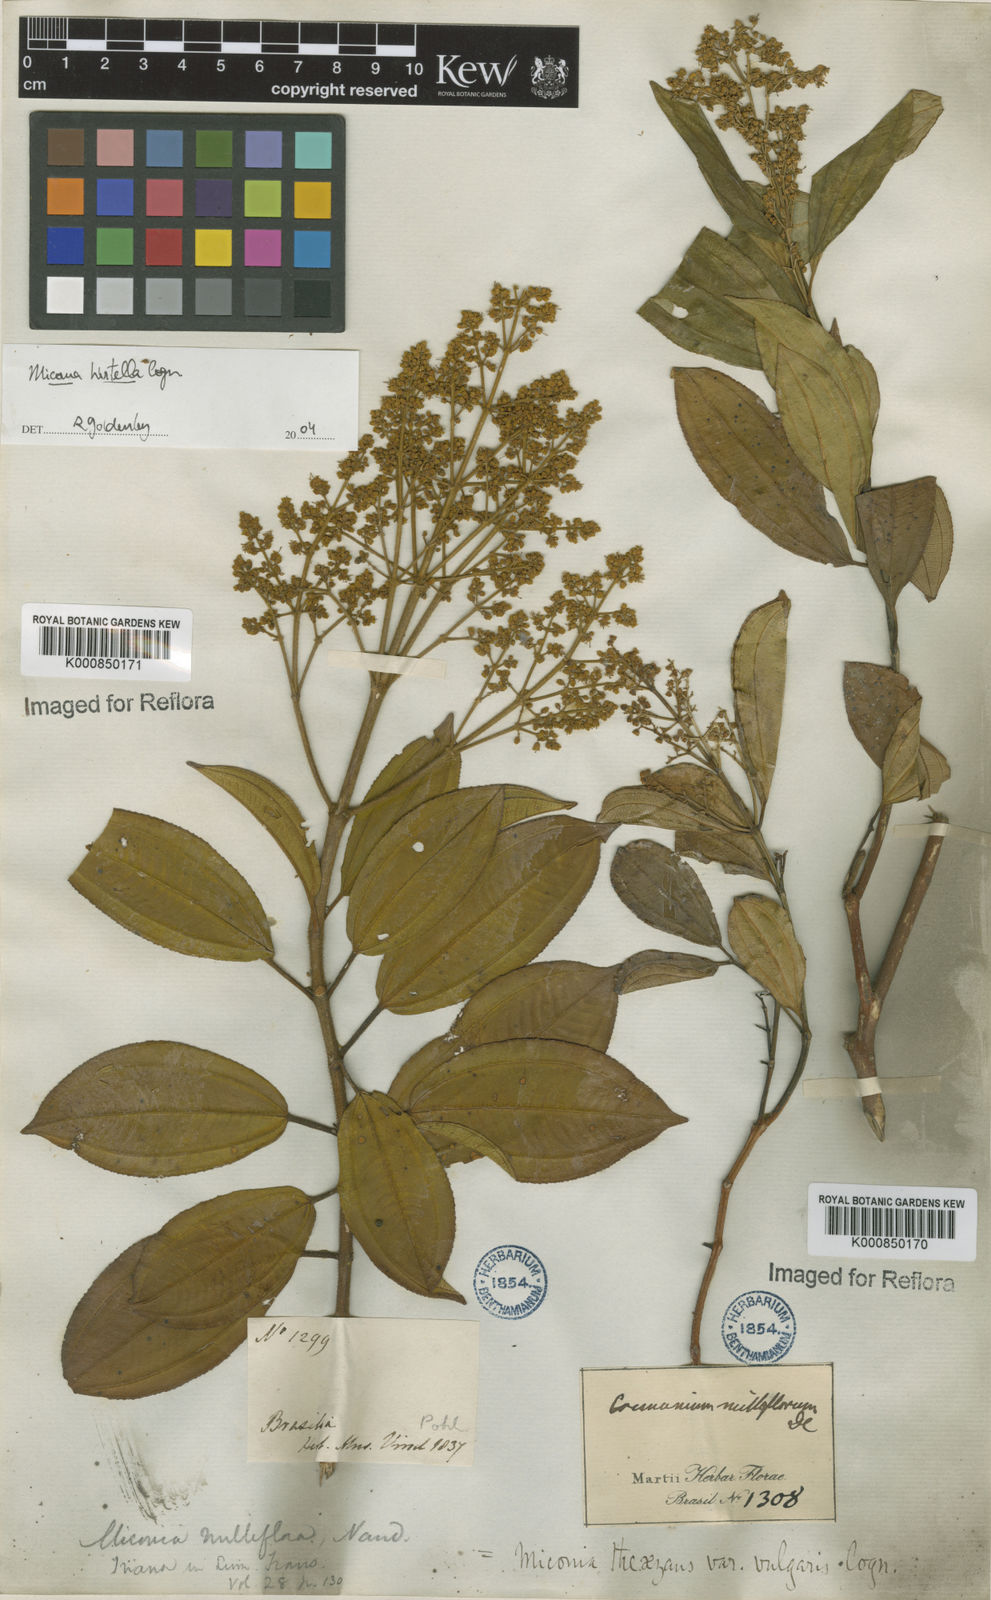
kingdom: Plantae
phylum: Tracheophyta
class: Magnoliopsida
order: Myrtales
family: Melastomataceae
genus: Miconia
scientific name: Miconia
